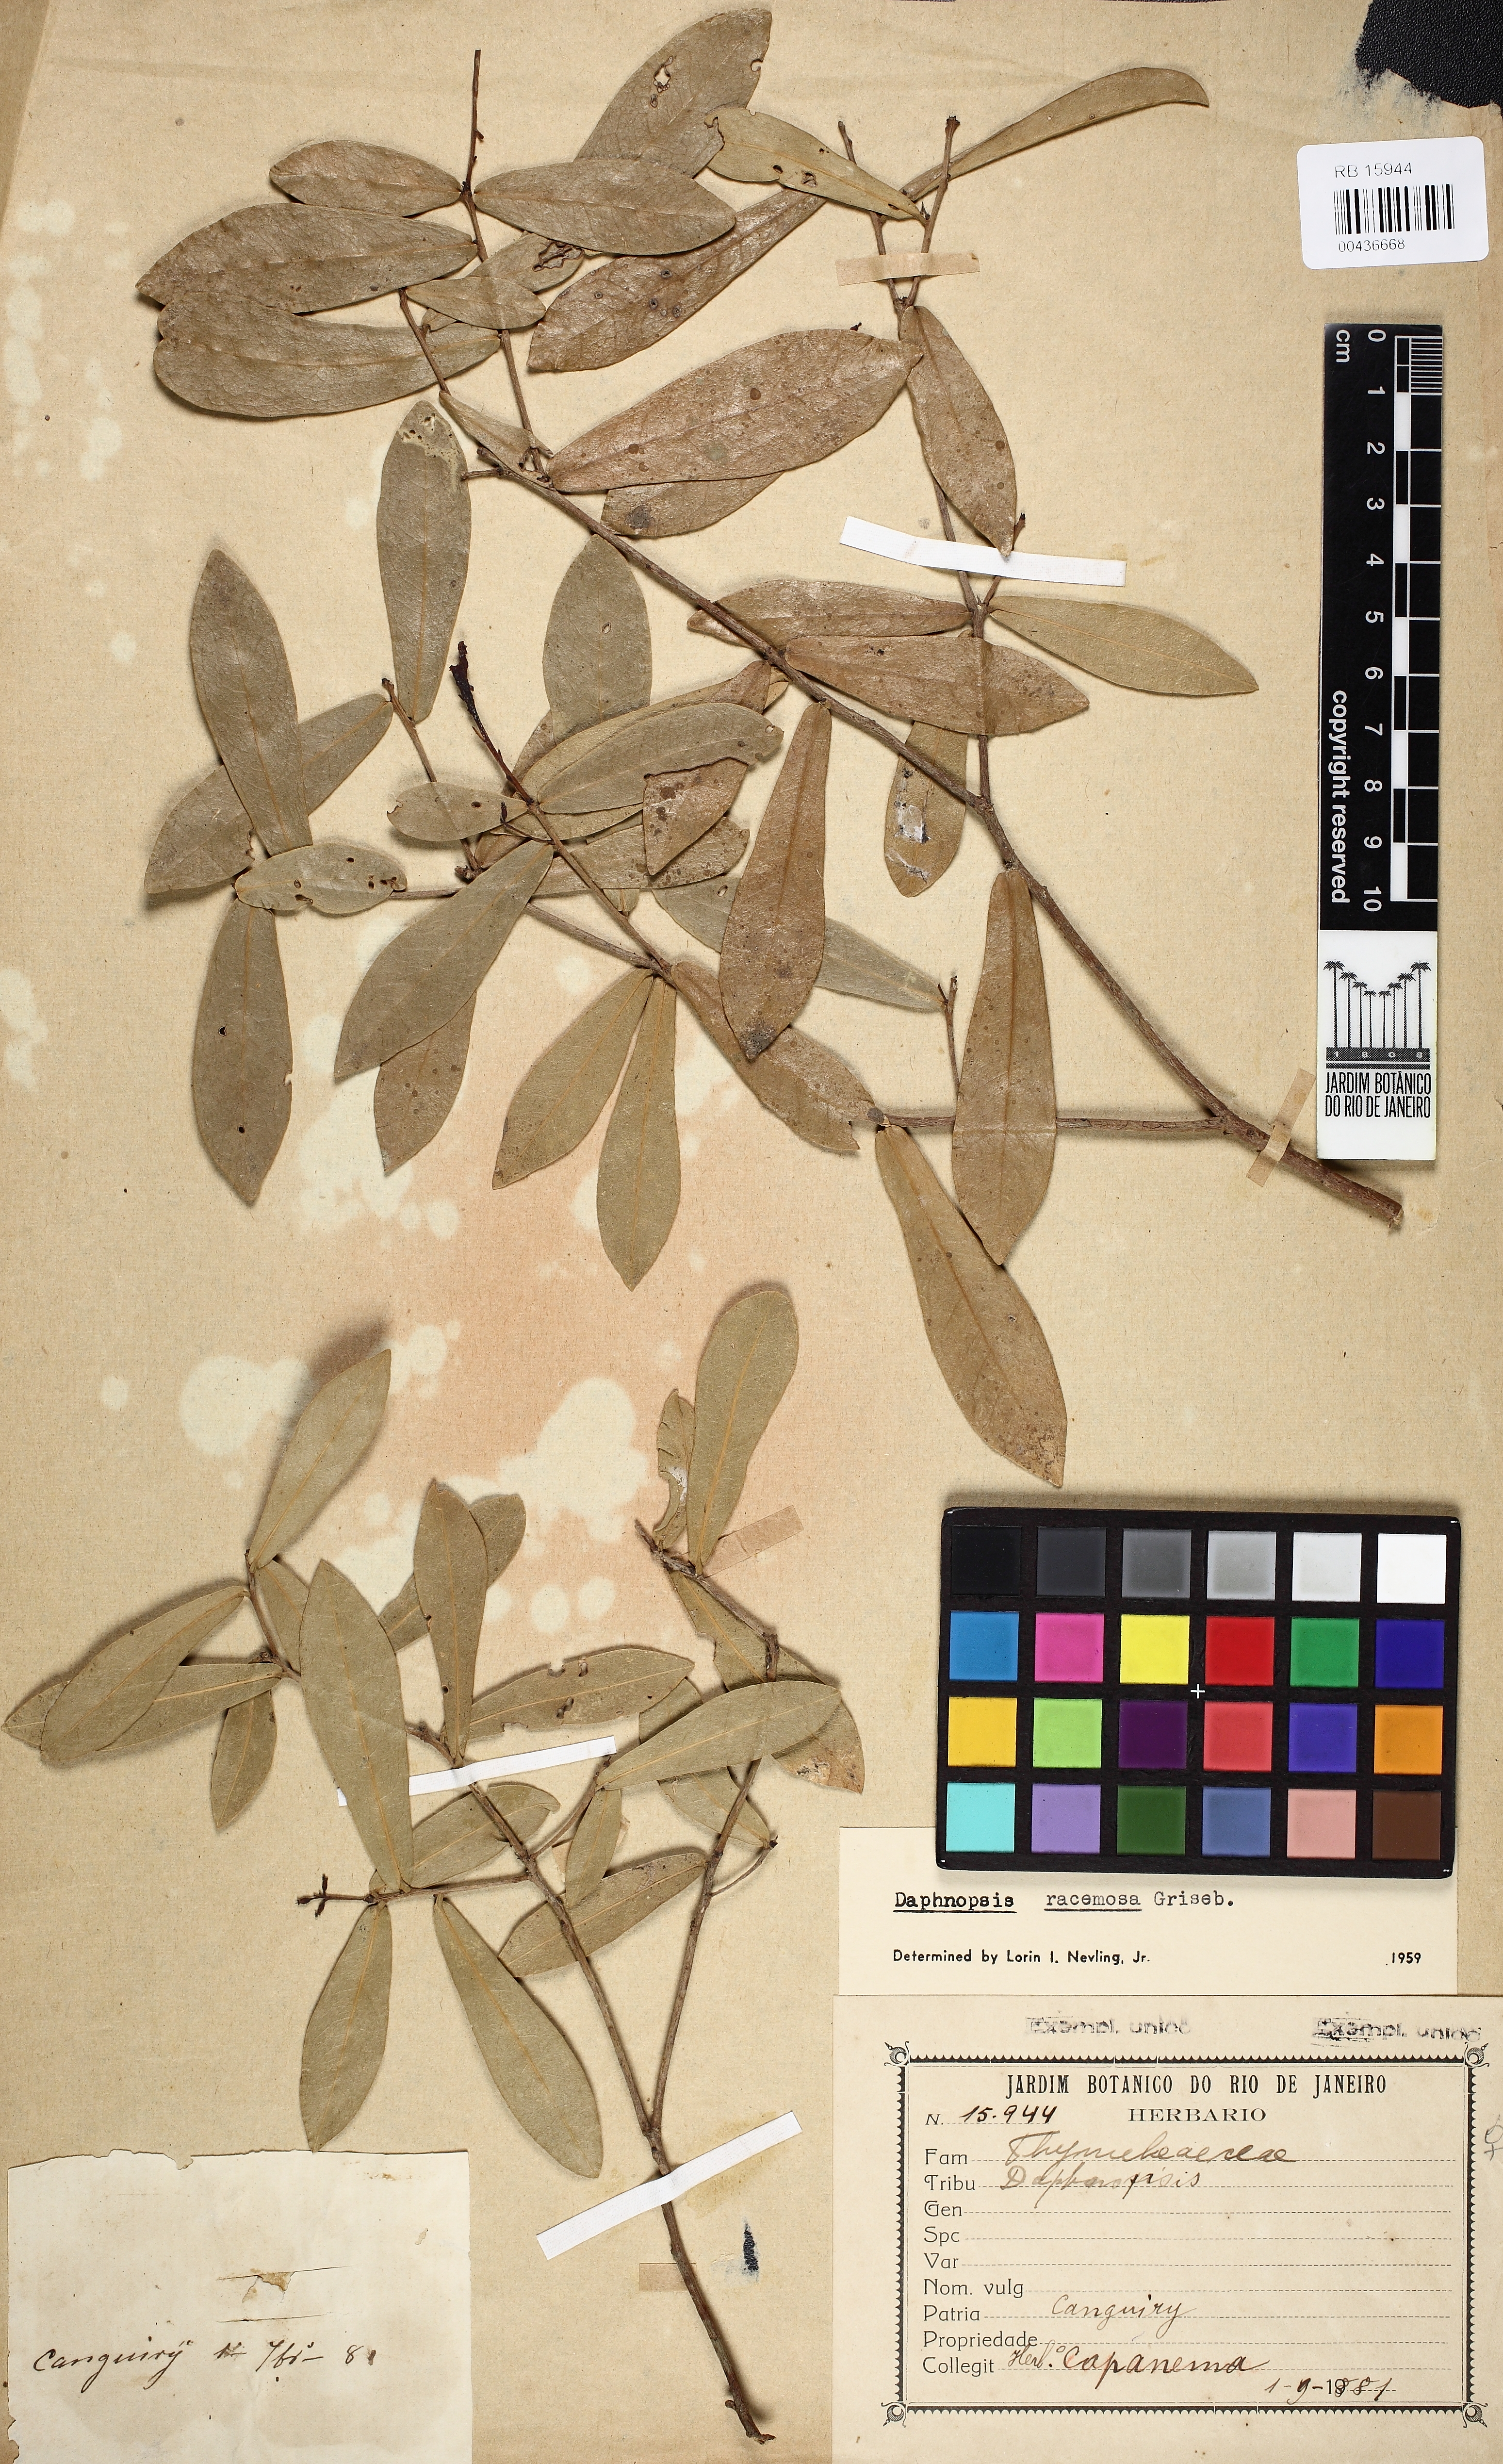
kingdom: Plantae
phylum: Tracheophyta
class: Magnoliopsida
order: Malvales
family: Thymelaeaceae
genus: Daphnopsis
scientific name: Daphnopsis racemosa
